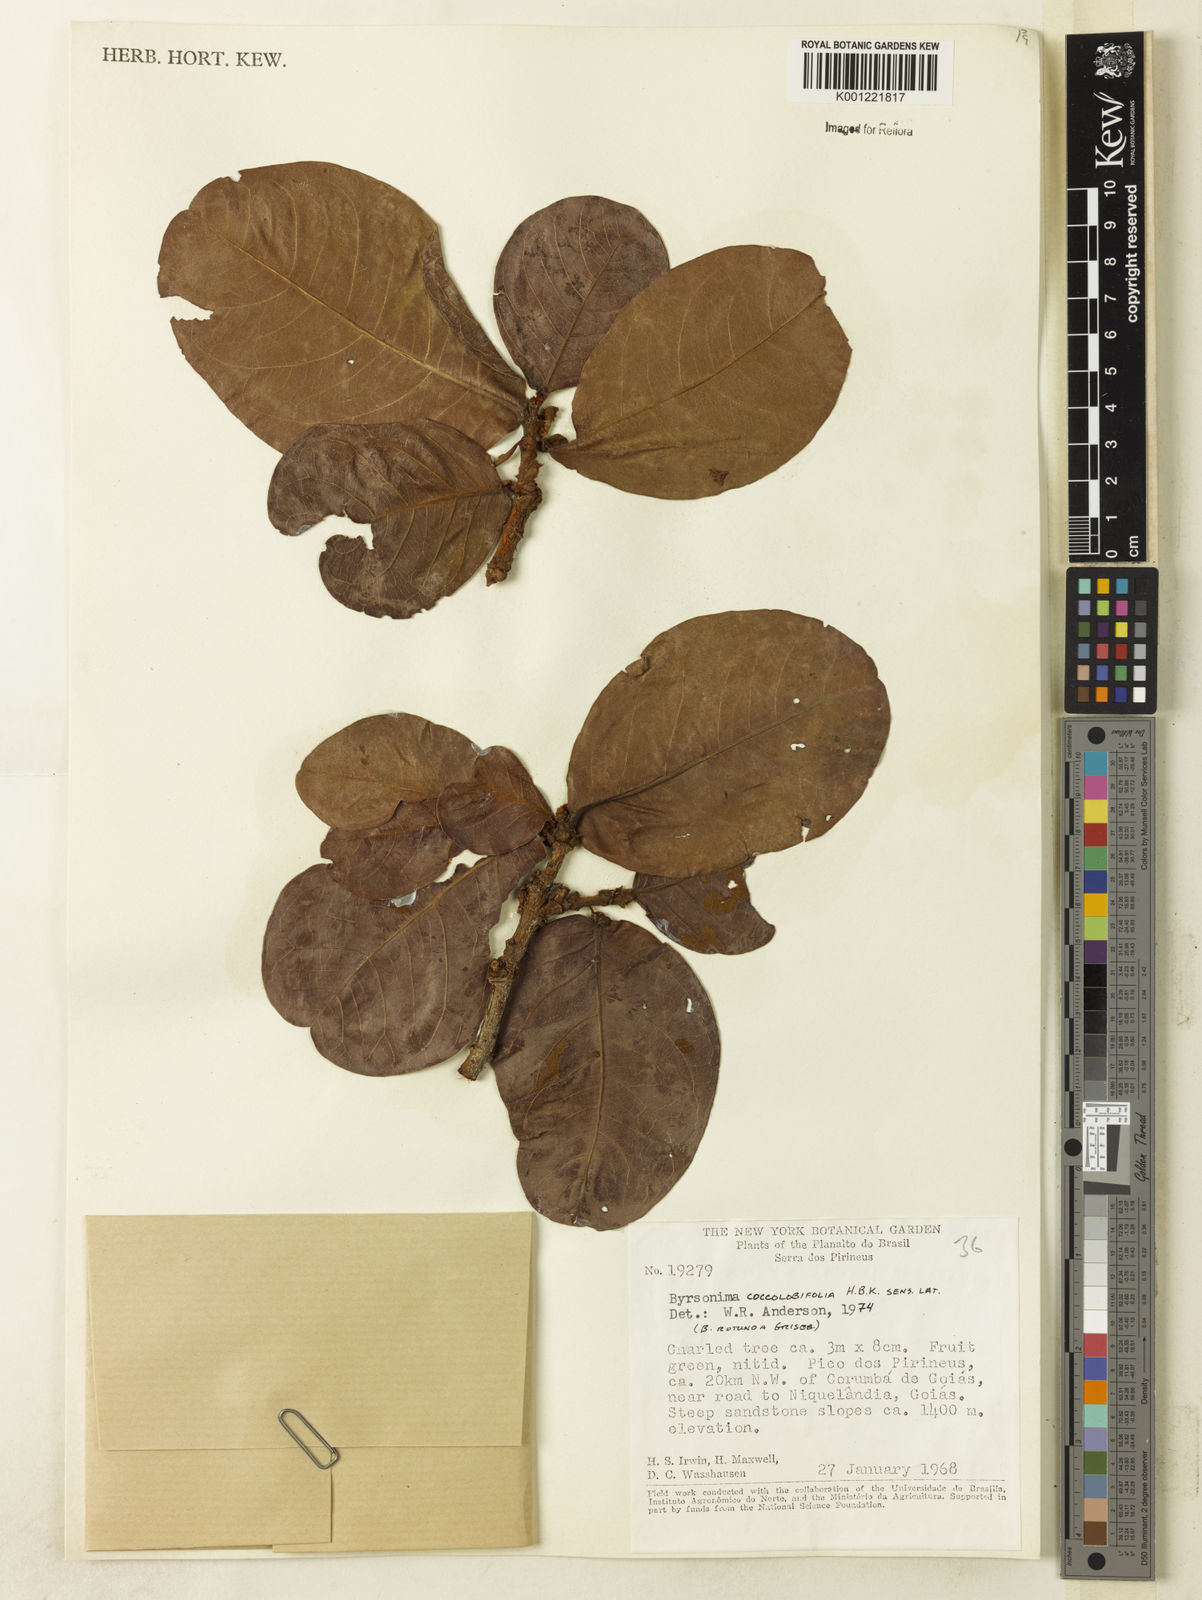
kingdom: Plantae
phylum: Tracheophyta
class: Magnoliopsida
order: Malpighiales
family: Malpighiaceae
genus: Byrsonima
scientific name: Byrsonima coccolobifolia
